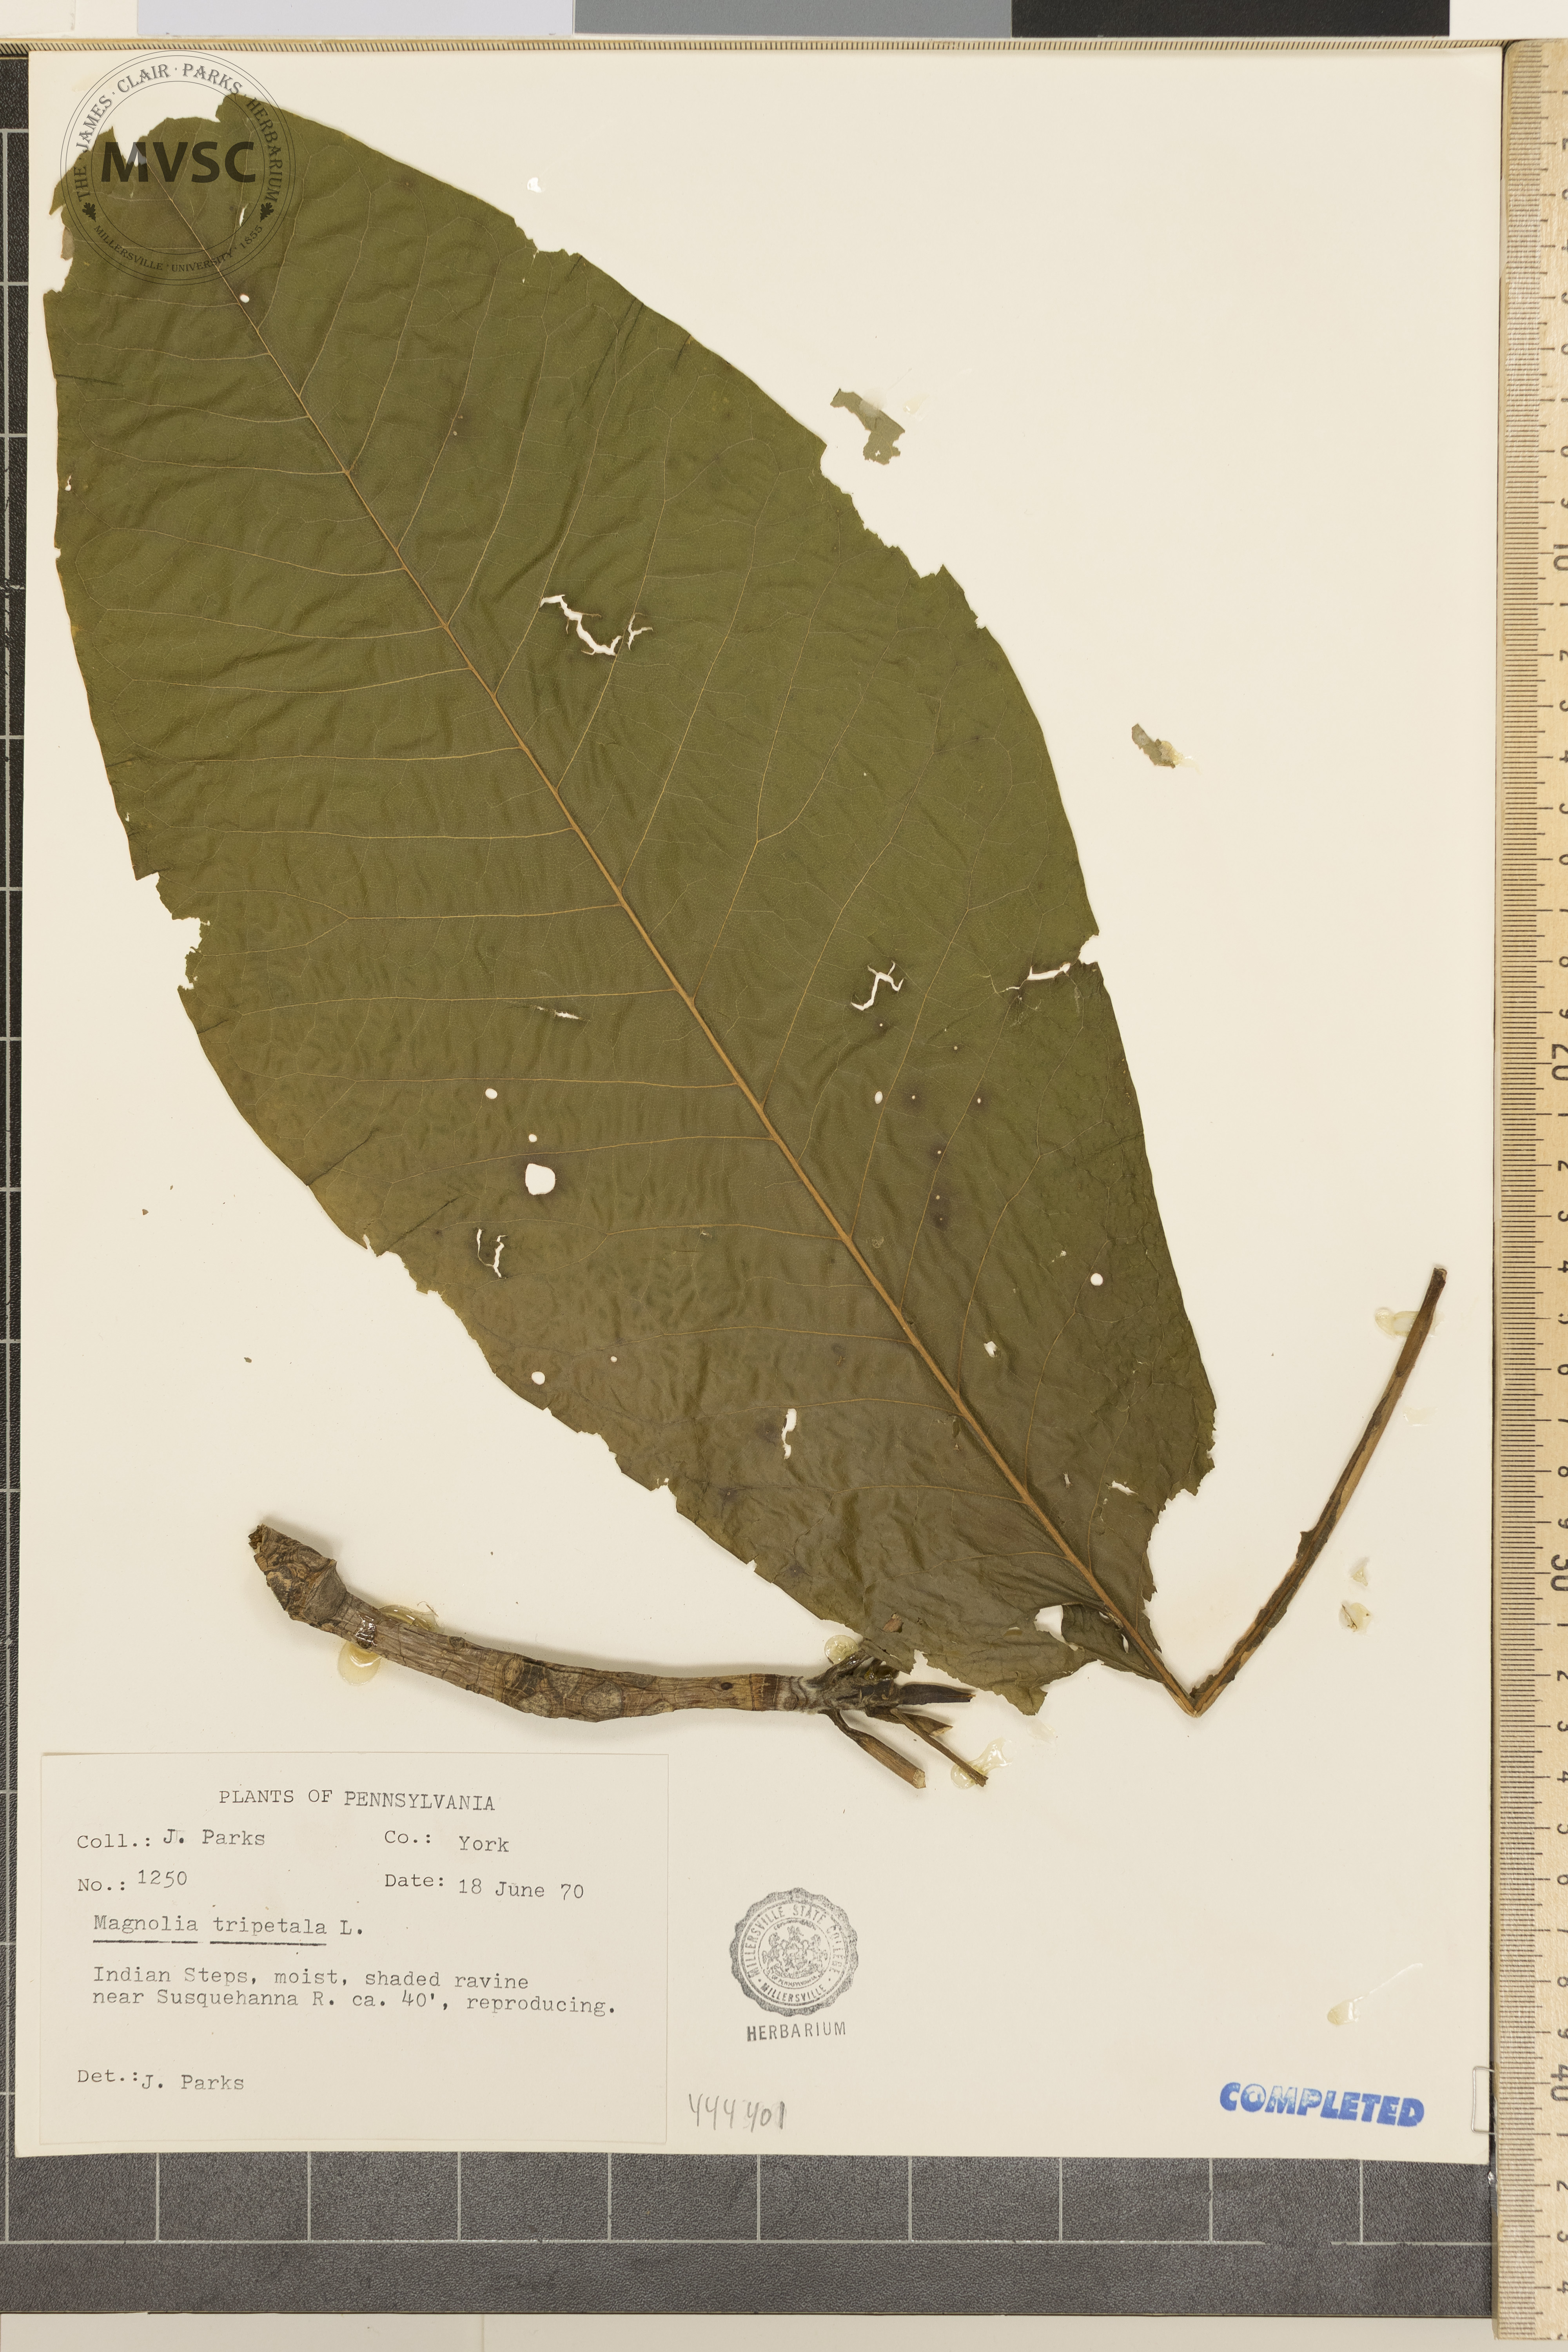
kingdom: Plantae
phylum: Tracheophyta
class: Magnoliopsida
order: Magnoliales
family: Magnoliaceae
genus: Magnolia
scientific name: Magnolia tripetala
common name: umbrella-tree
